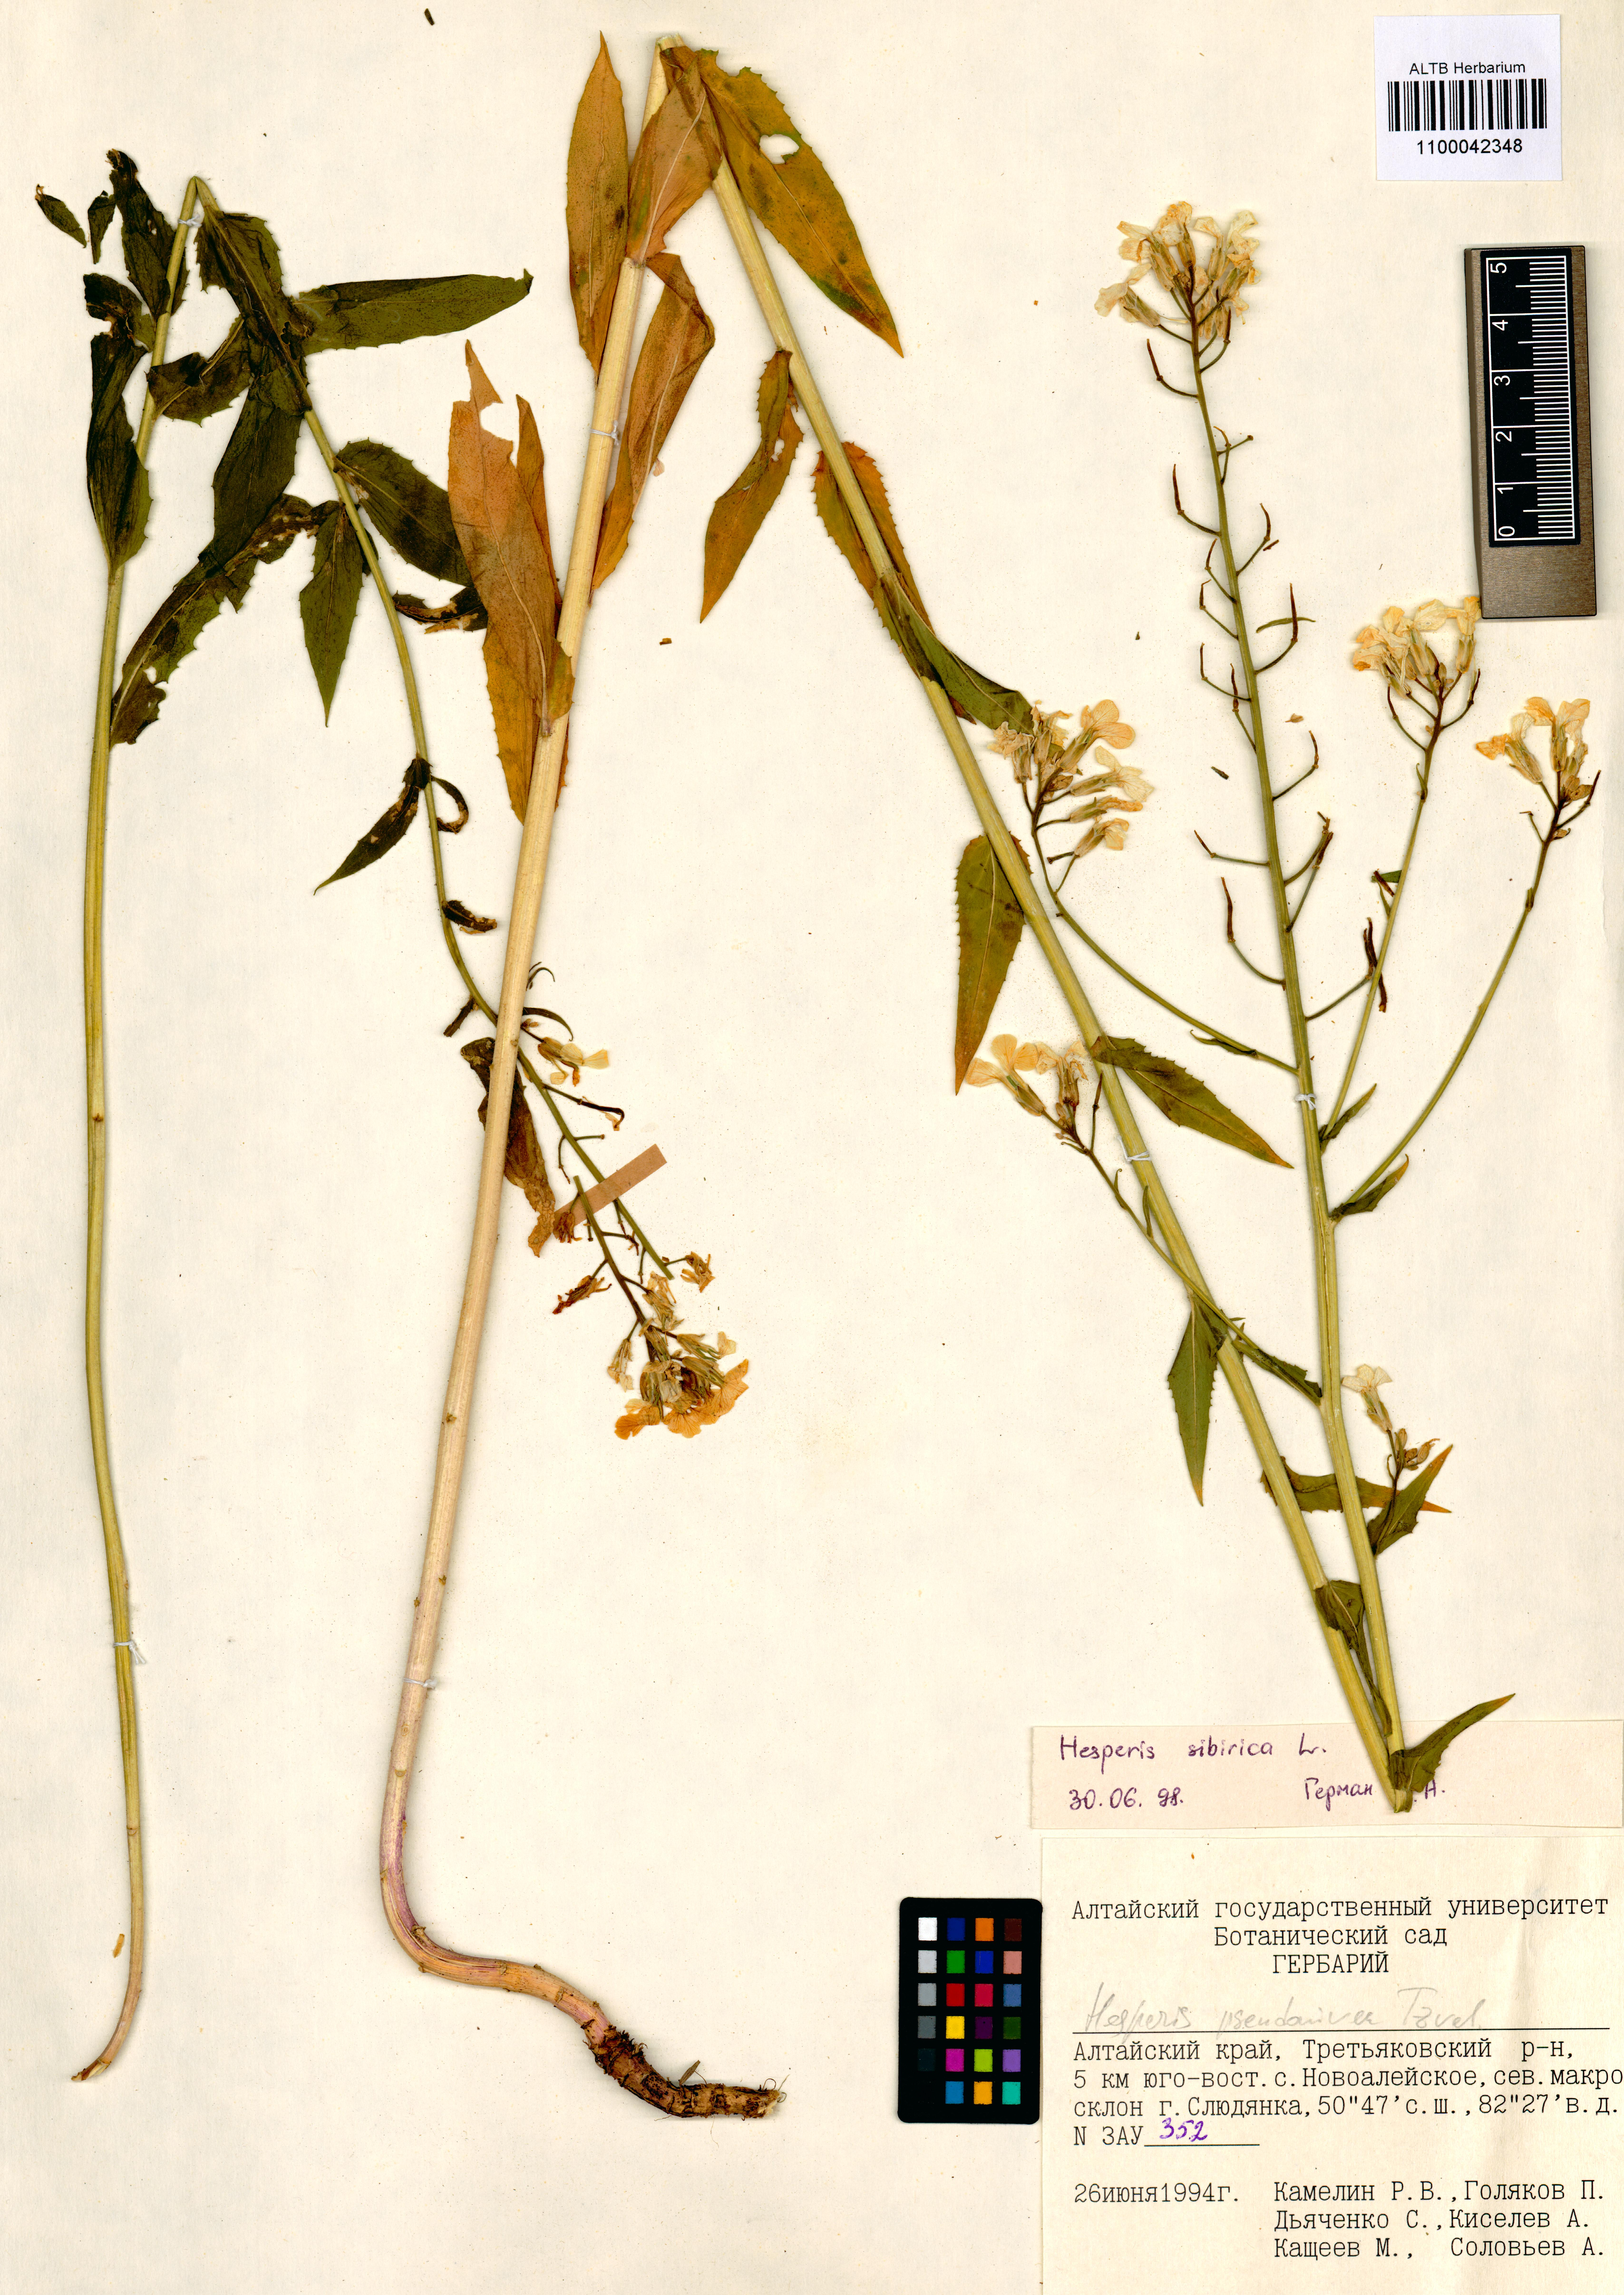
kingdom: Plantae
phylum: Tracheophyta
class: Magnoliopsida
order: Brassicales
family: Brassicaceae
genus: Hesperis
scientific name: Hesperis sibirica
